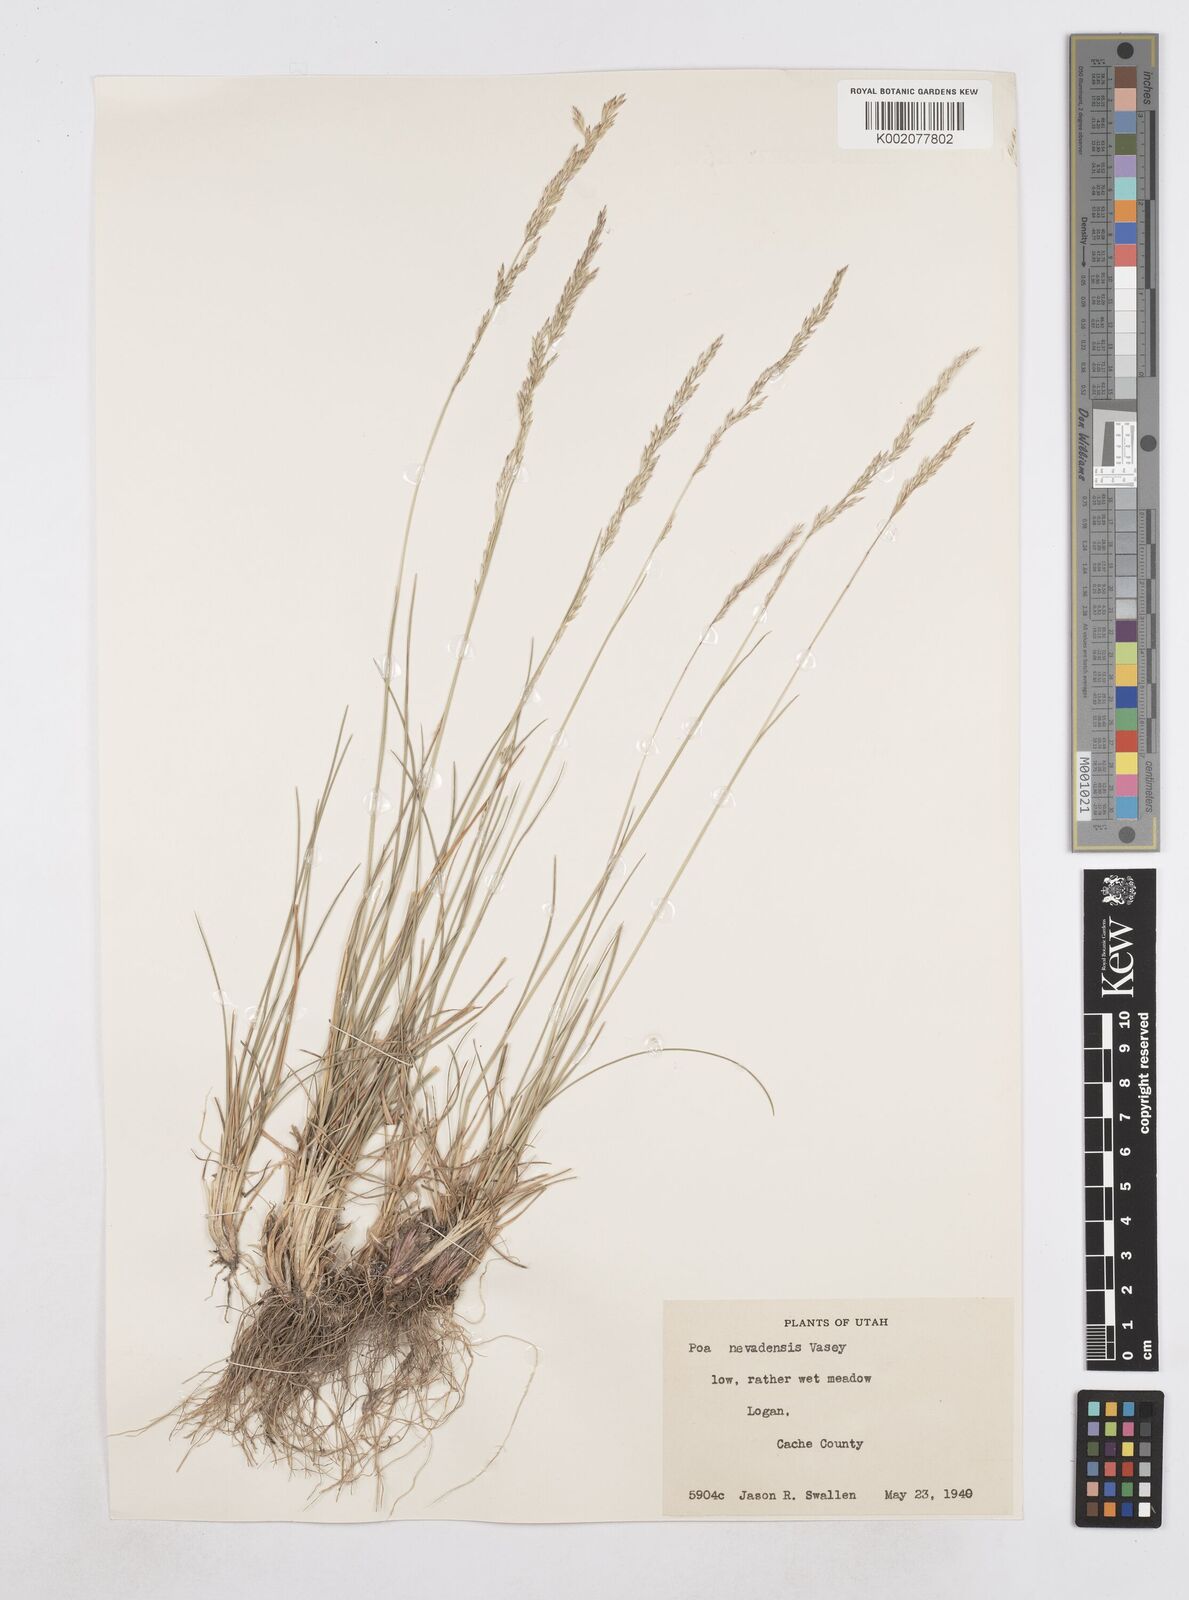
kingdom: Plantae
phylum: Tracheophyta
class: Liliopsida
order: Poales
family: Poaceae
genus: Poa
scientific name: Poa secunda
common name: Sandberg bluegrass
